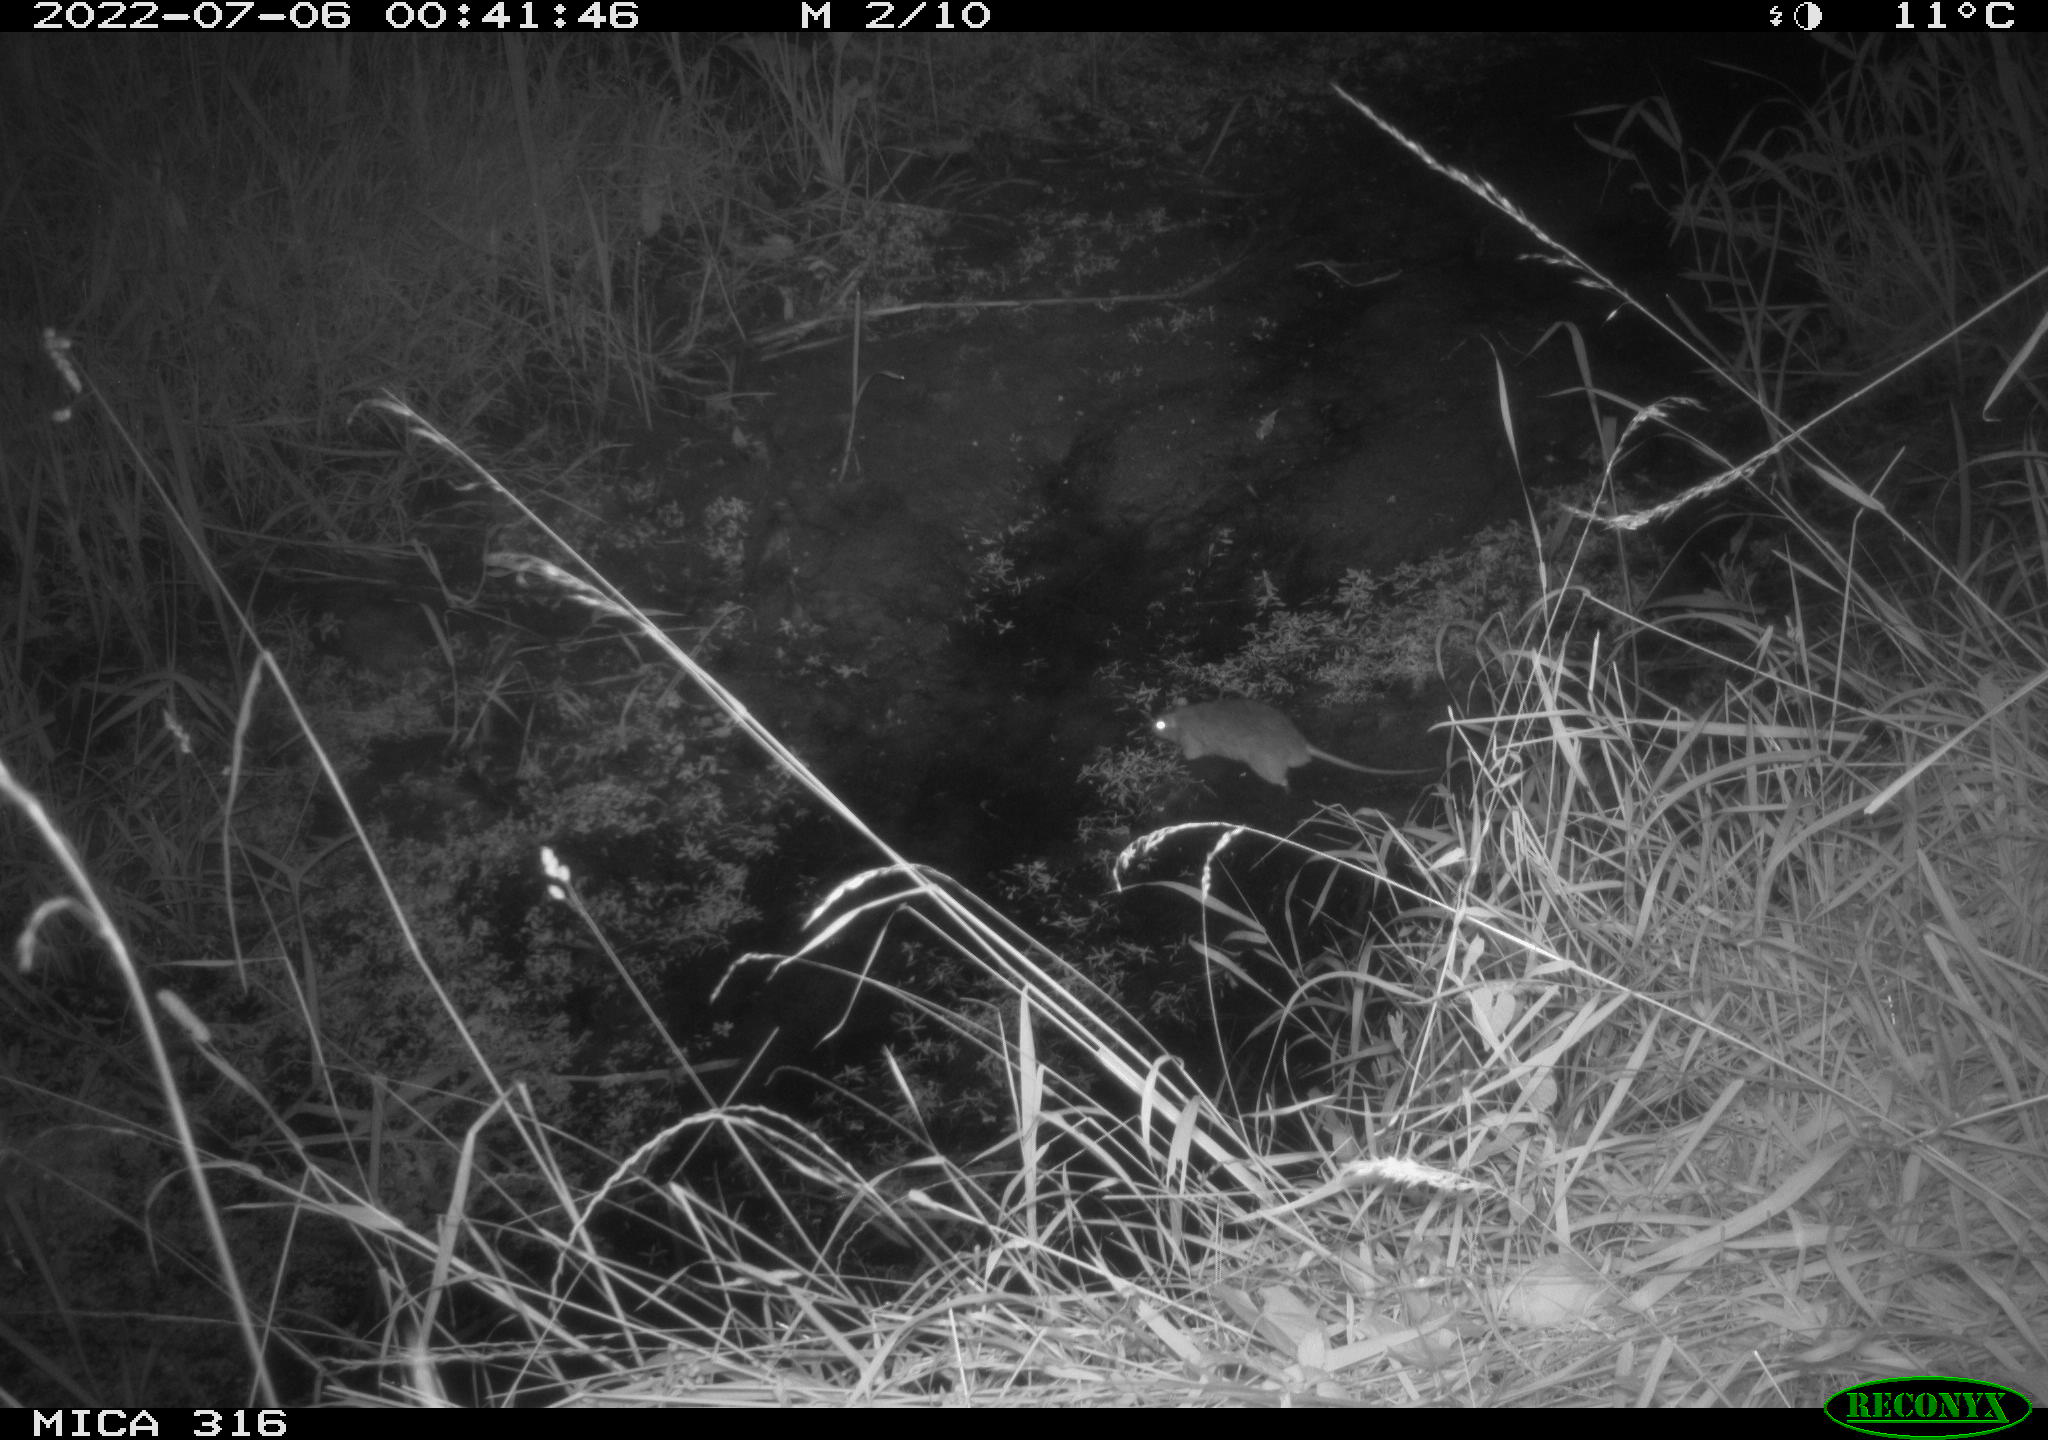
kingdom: Animalia
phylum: Chordata
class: Mammalia
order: Rodentia
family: Muridae
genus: Rattus
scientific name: Rattus norvegicus
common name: Brown rat
